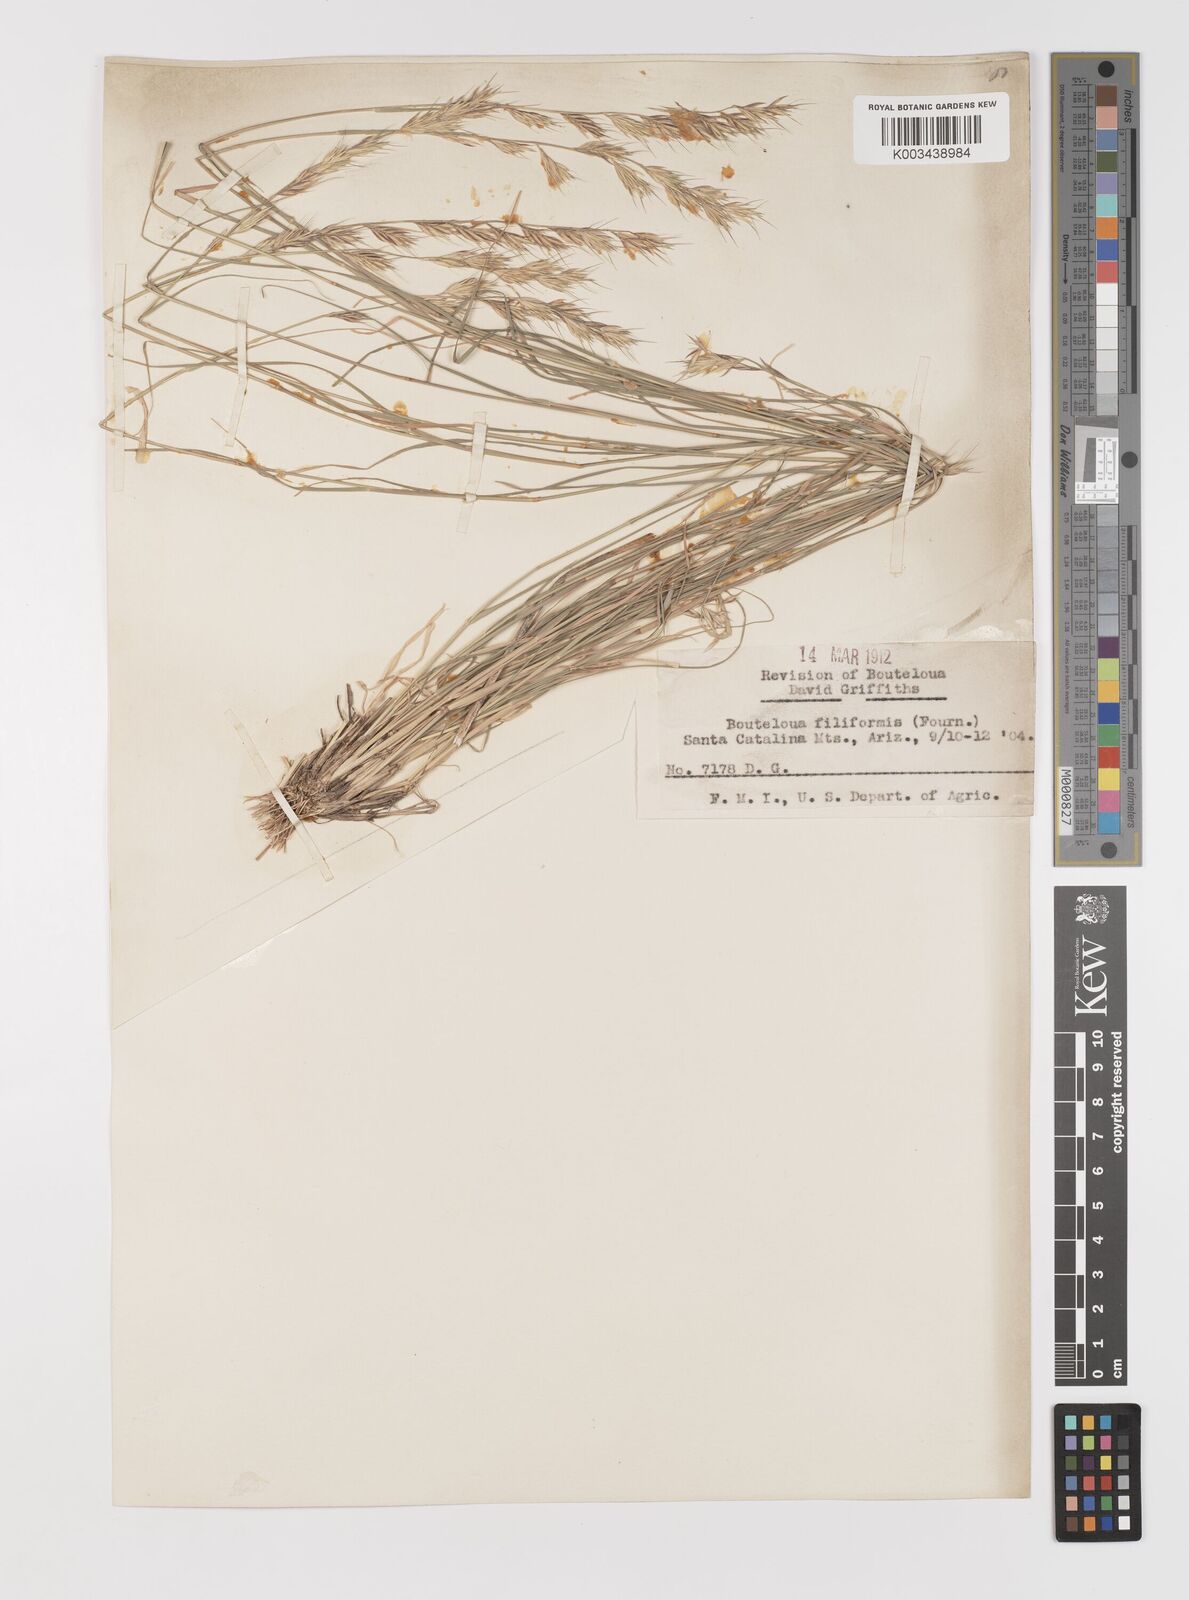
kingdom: Plantae
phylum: Tracheophyta
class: Liliopsida
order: Poales
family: Poaceae
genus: Bouteloua
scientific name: Bouteloua repens
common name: Slender grama
